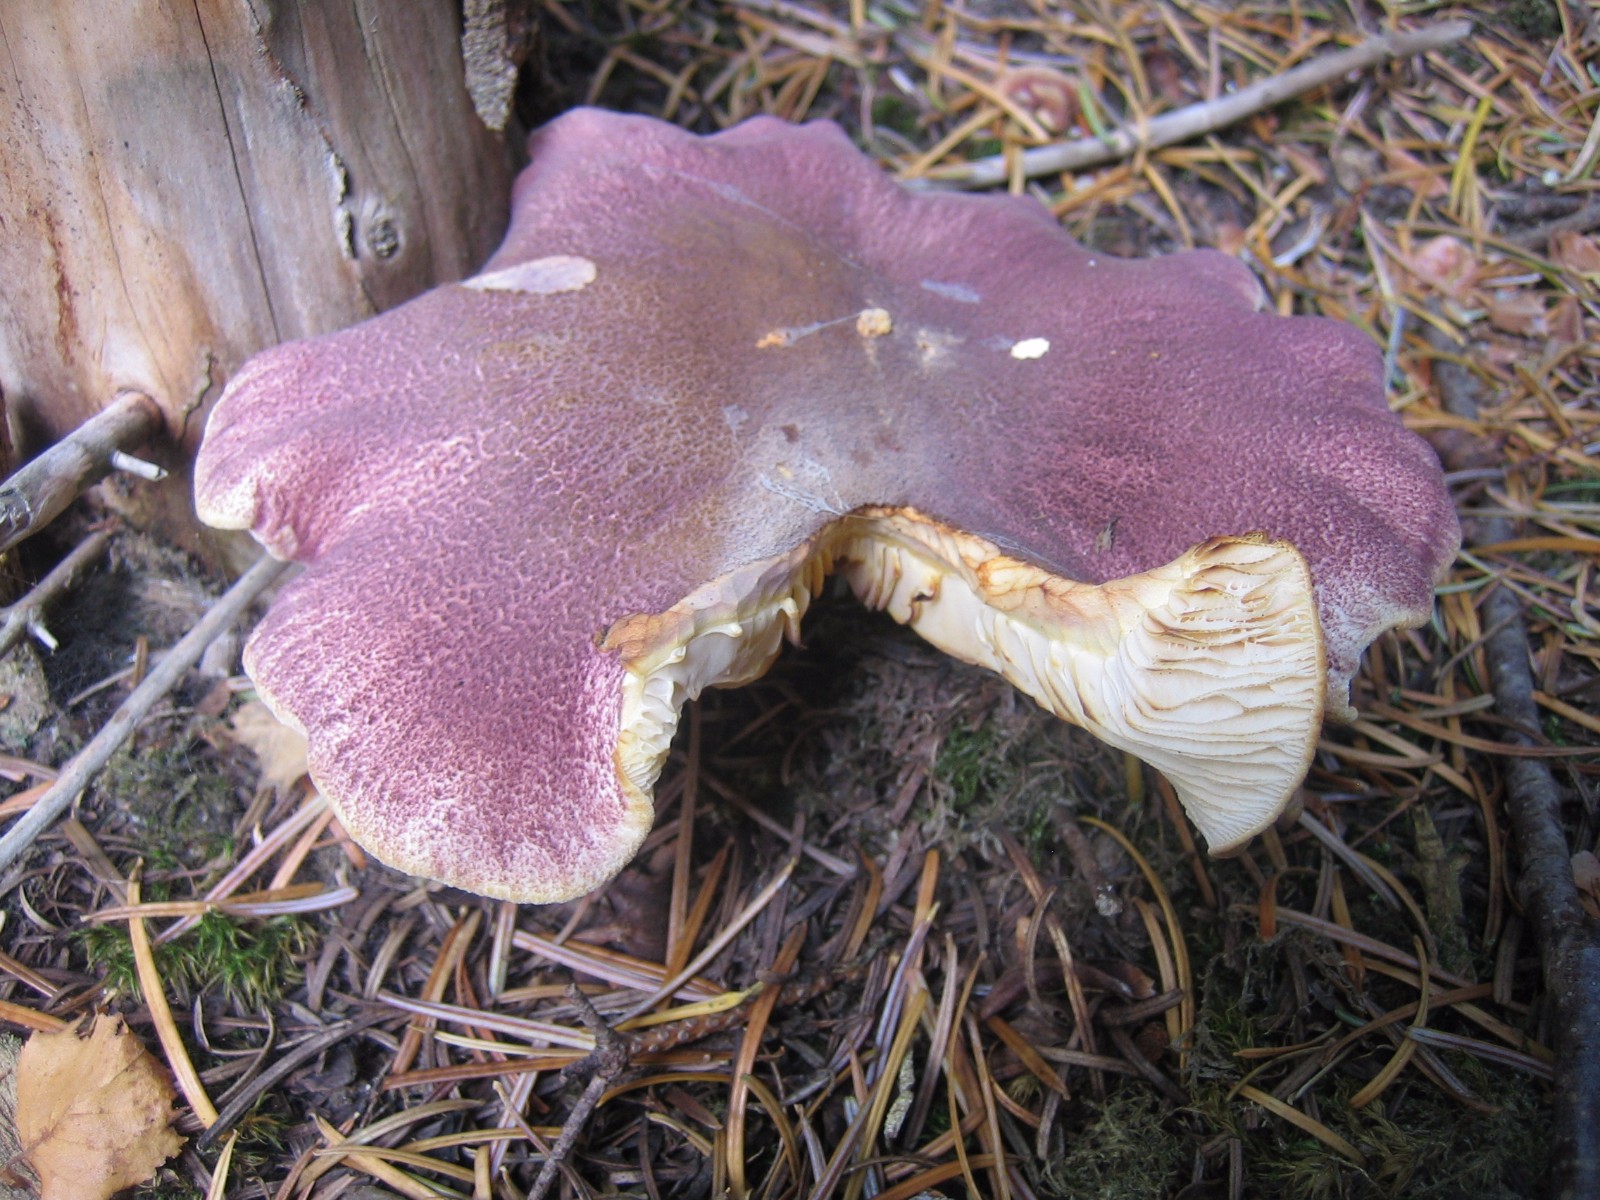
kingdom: Fungi
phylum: Basidiomycota
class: Agaricomycetes
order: Agaricales
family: Tricholomataceae
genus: Tricholomopsis
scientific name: Tricholomopsis rutilans
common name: purpur-væbnerhat
